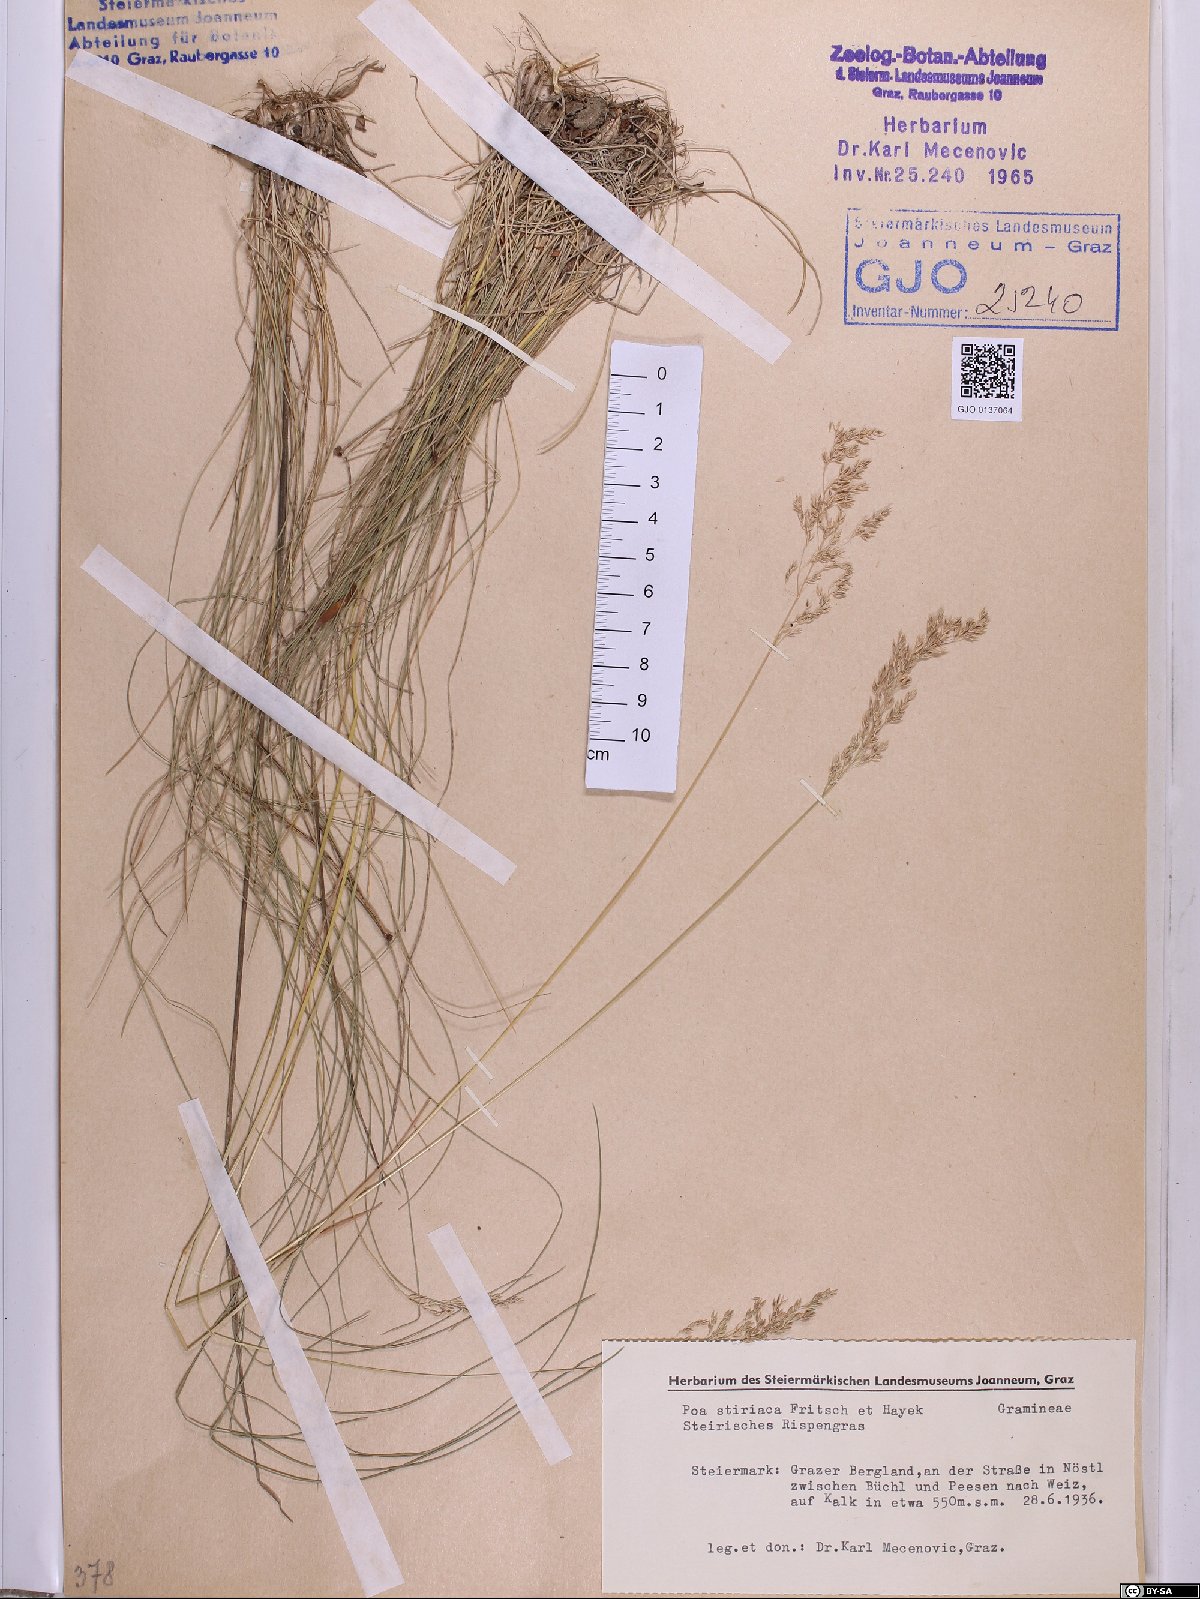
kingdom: Plantae
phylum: Tracheophyta
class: Liliopsida
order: Poales
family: Poaceae
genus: Poa
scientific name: Poa stiriaca
